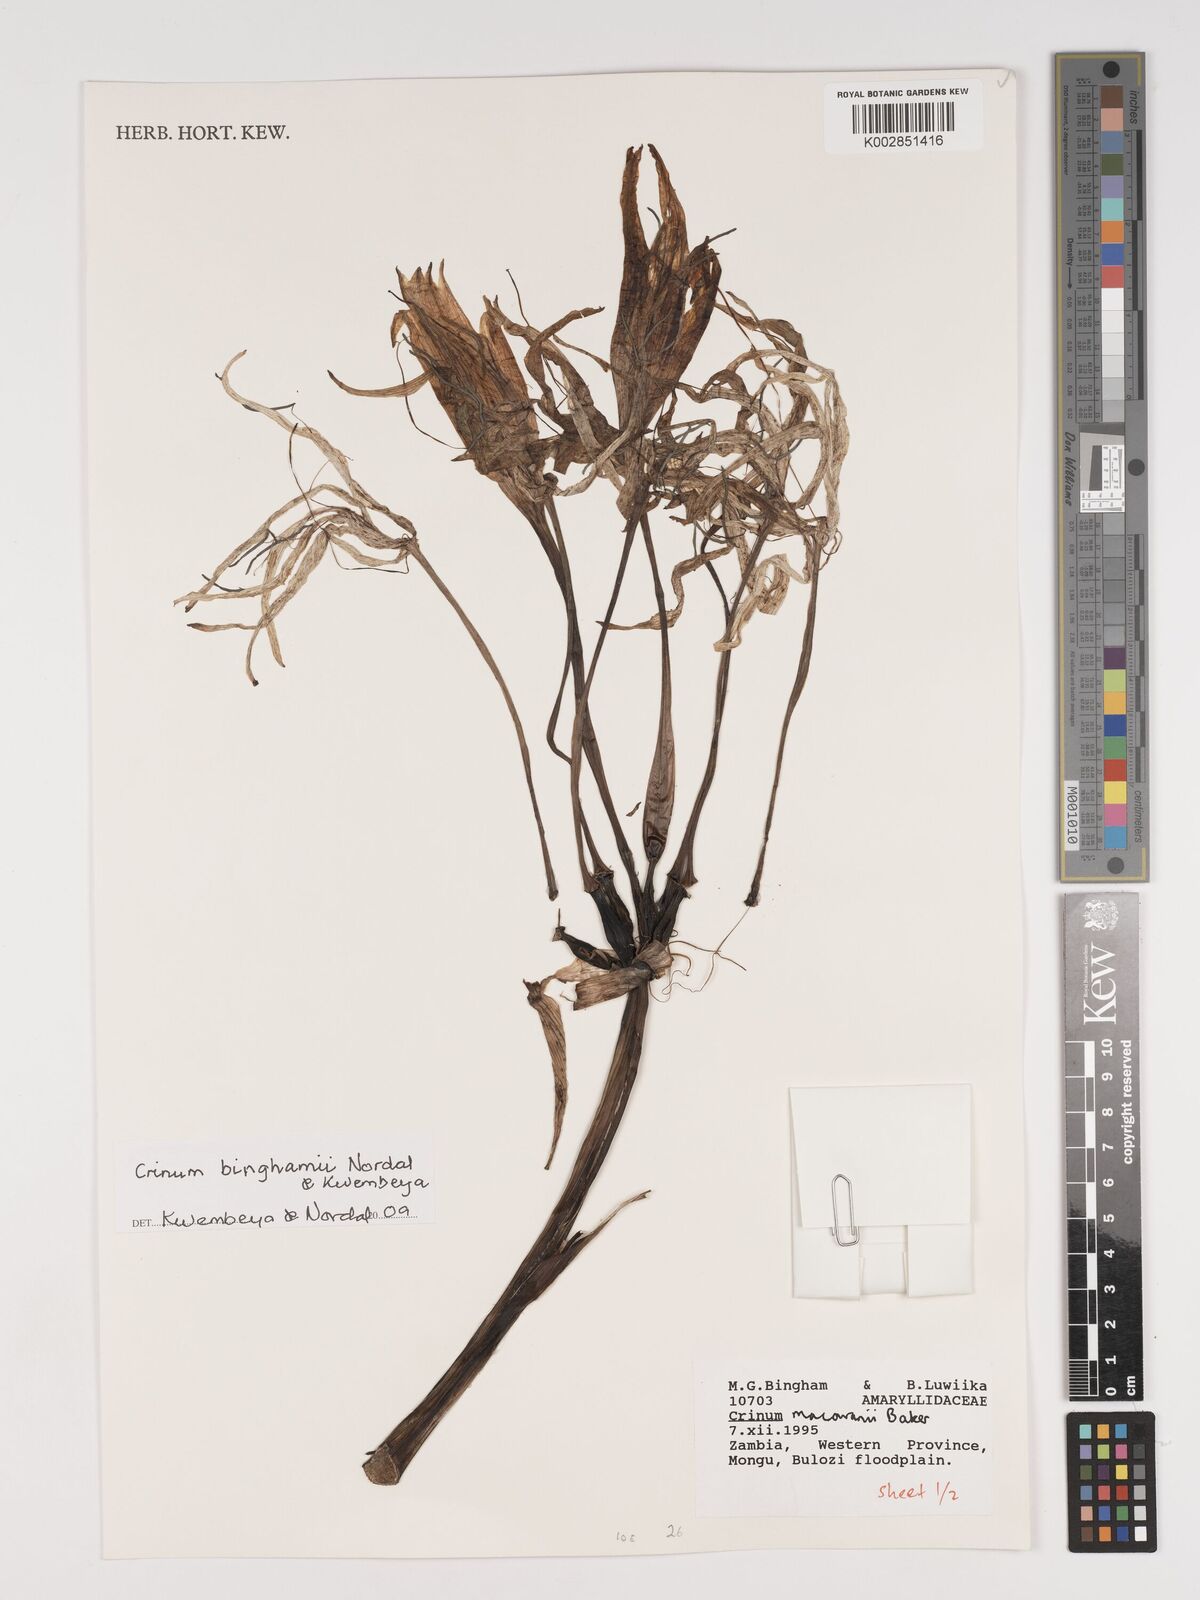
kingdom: Plantae
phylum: Tracheophyta
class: Liliopsida
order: Asparagales
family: Amaryllidaceae
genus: Crinum
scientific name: Crinum binghamii
